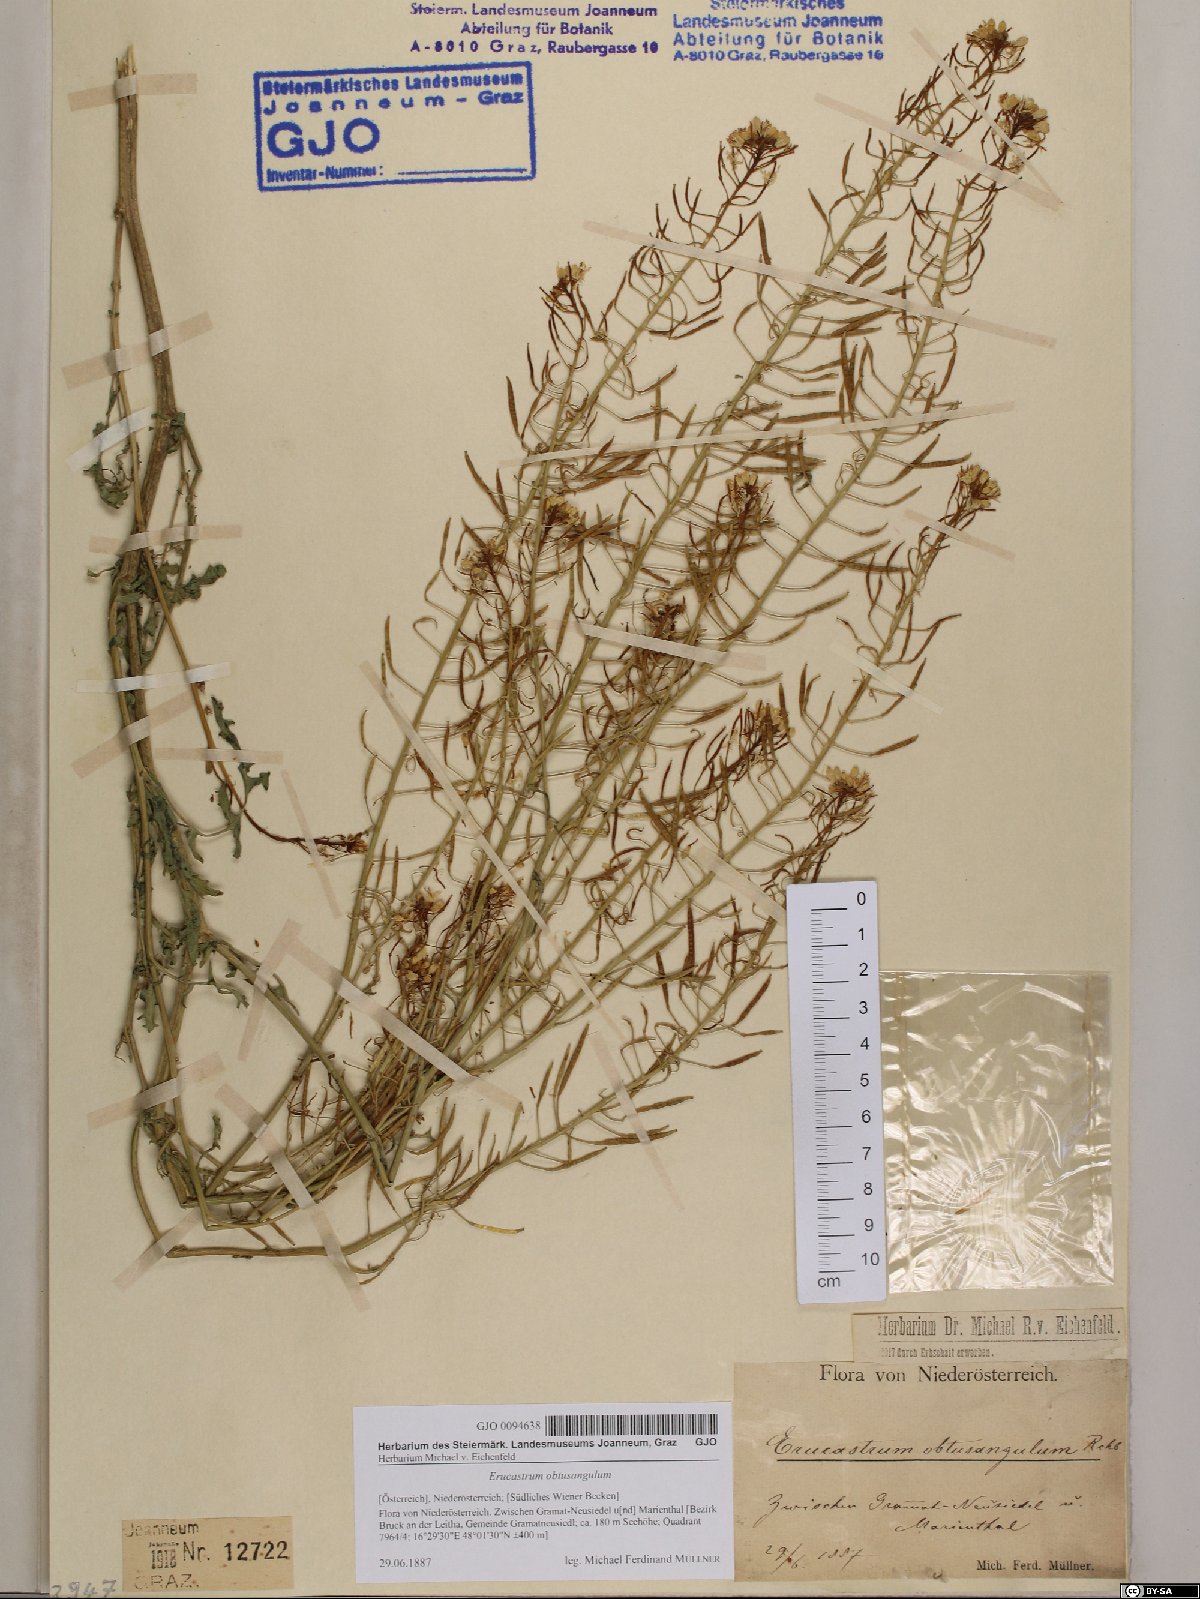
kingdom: Plantae
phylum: Tracheophyta
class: Magnoliopsida
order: Brassicales
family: Brassicaceae
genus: Erucastrum
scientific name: Erucastrum nasturtiifolium
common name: Watercress-leaf rocket
